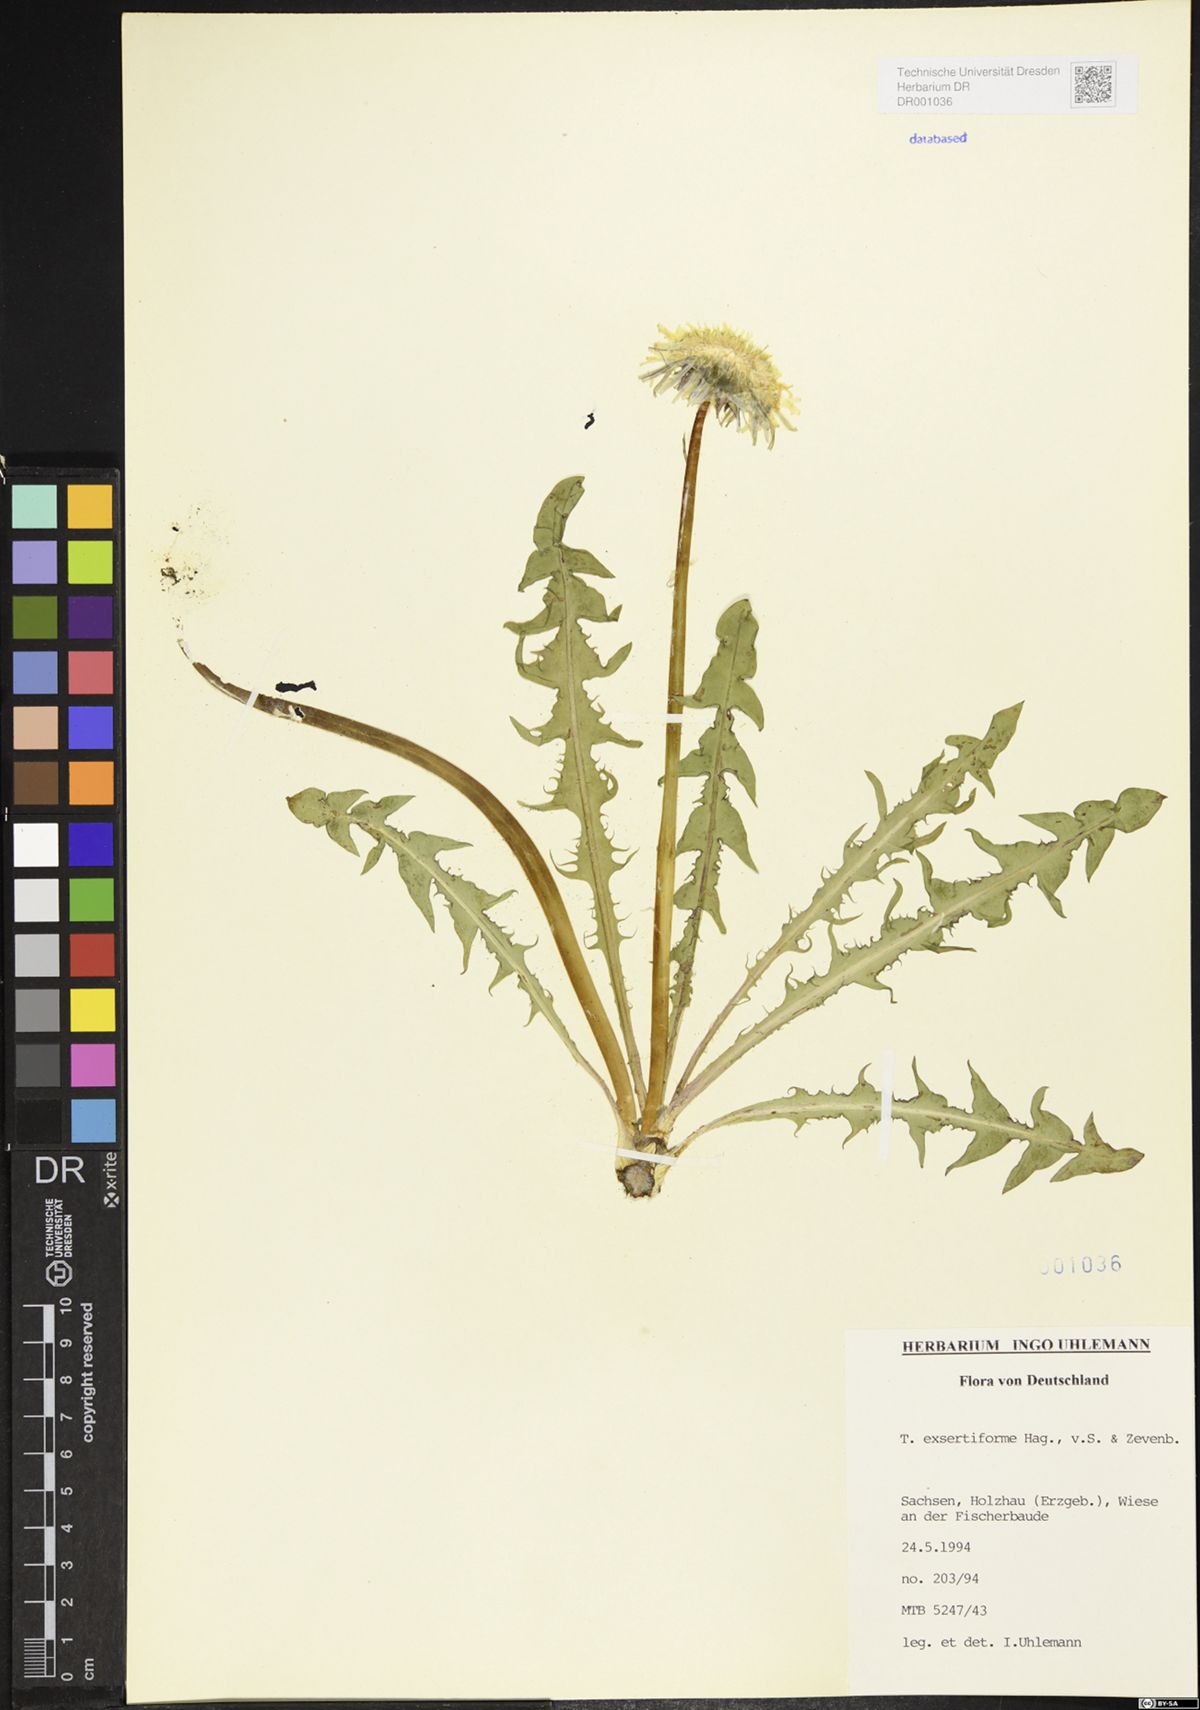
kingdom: Plantae
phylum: Tracheophyta
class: Magnoliopsida
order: Asterales
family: Asteraceae
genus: Taraxacum
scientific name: Taraxacum exsertiforme
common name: Erect-bracted dandelion
